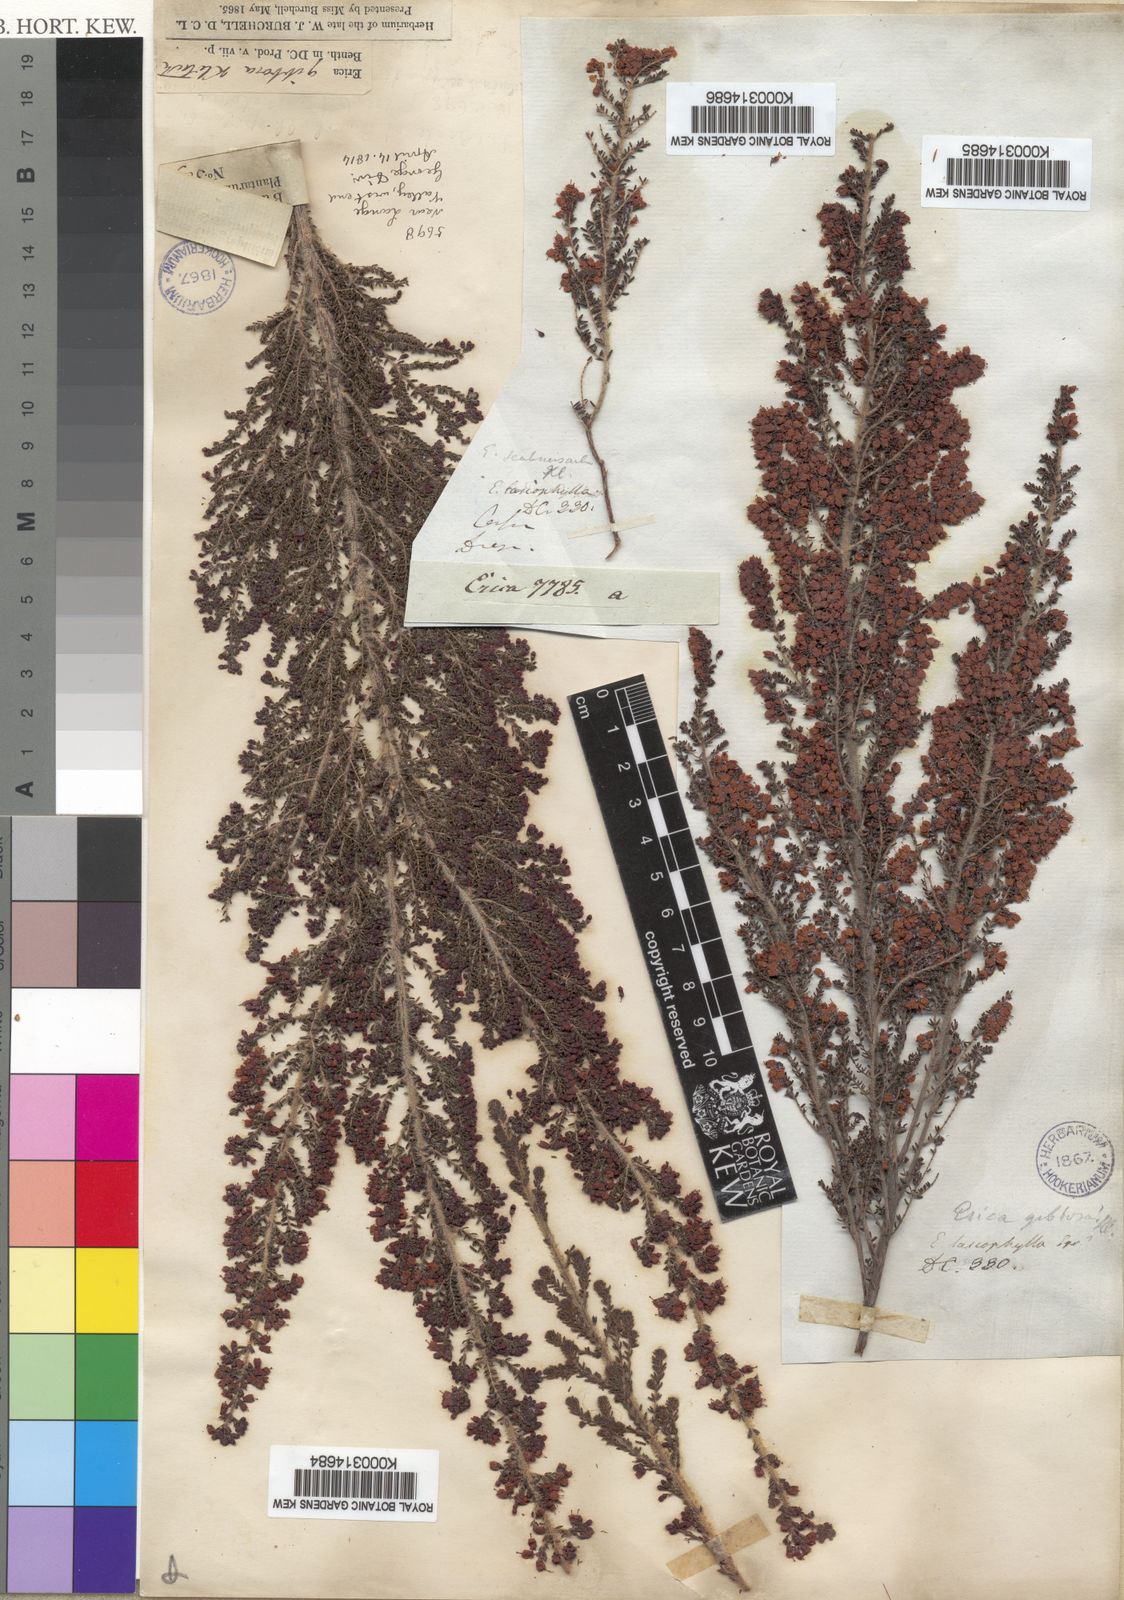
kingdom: Plantae
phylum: Tracheophyta
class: Magnoliopsida
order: Ericales
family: Ericaceae
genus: Erica
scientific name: Erica scabriuscula
